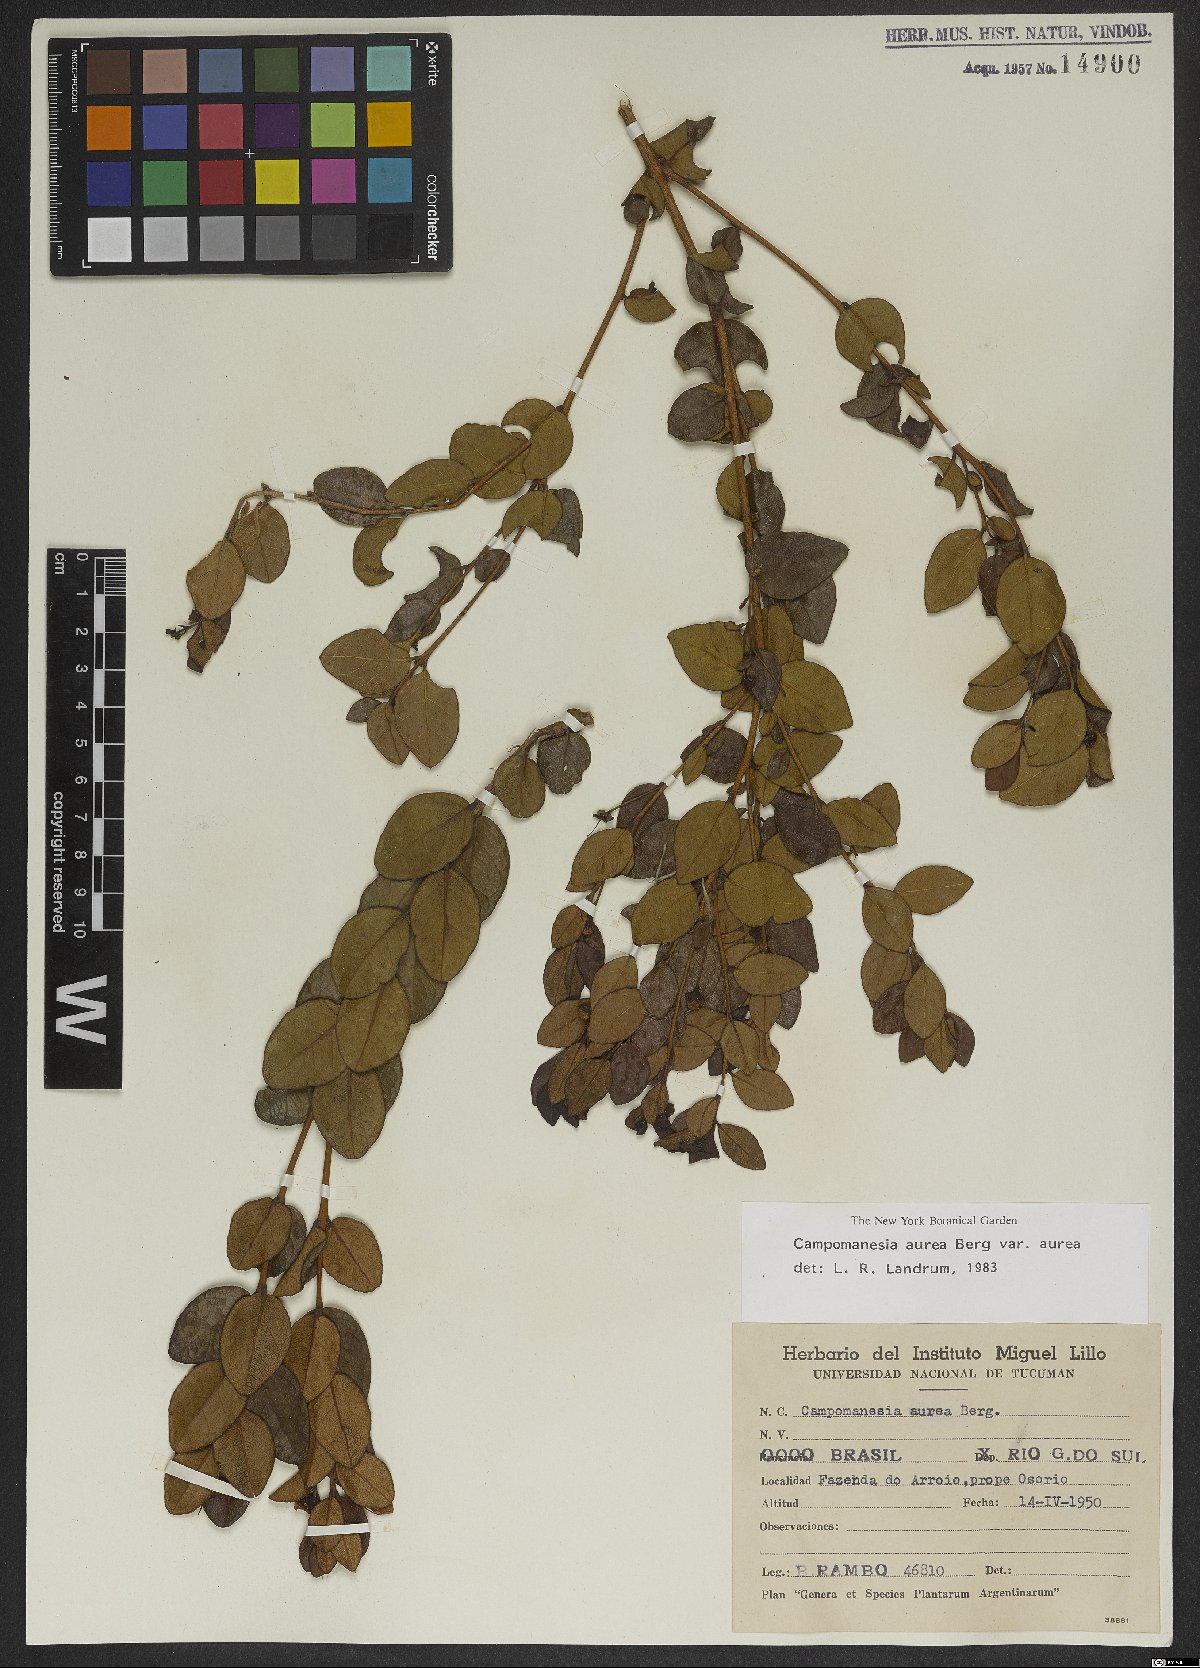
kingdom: Plantae
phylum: Tracheophyta
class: Magnoliopsida
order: Myrtales
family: Myrtaceae
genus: Campomanesia
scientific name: Campomanesia aurea
